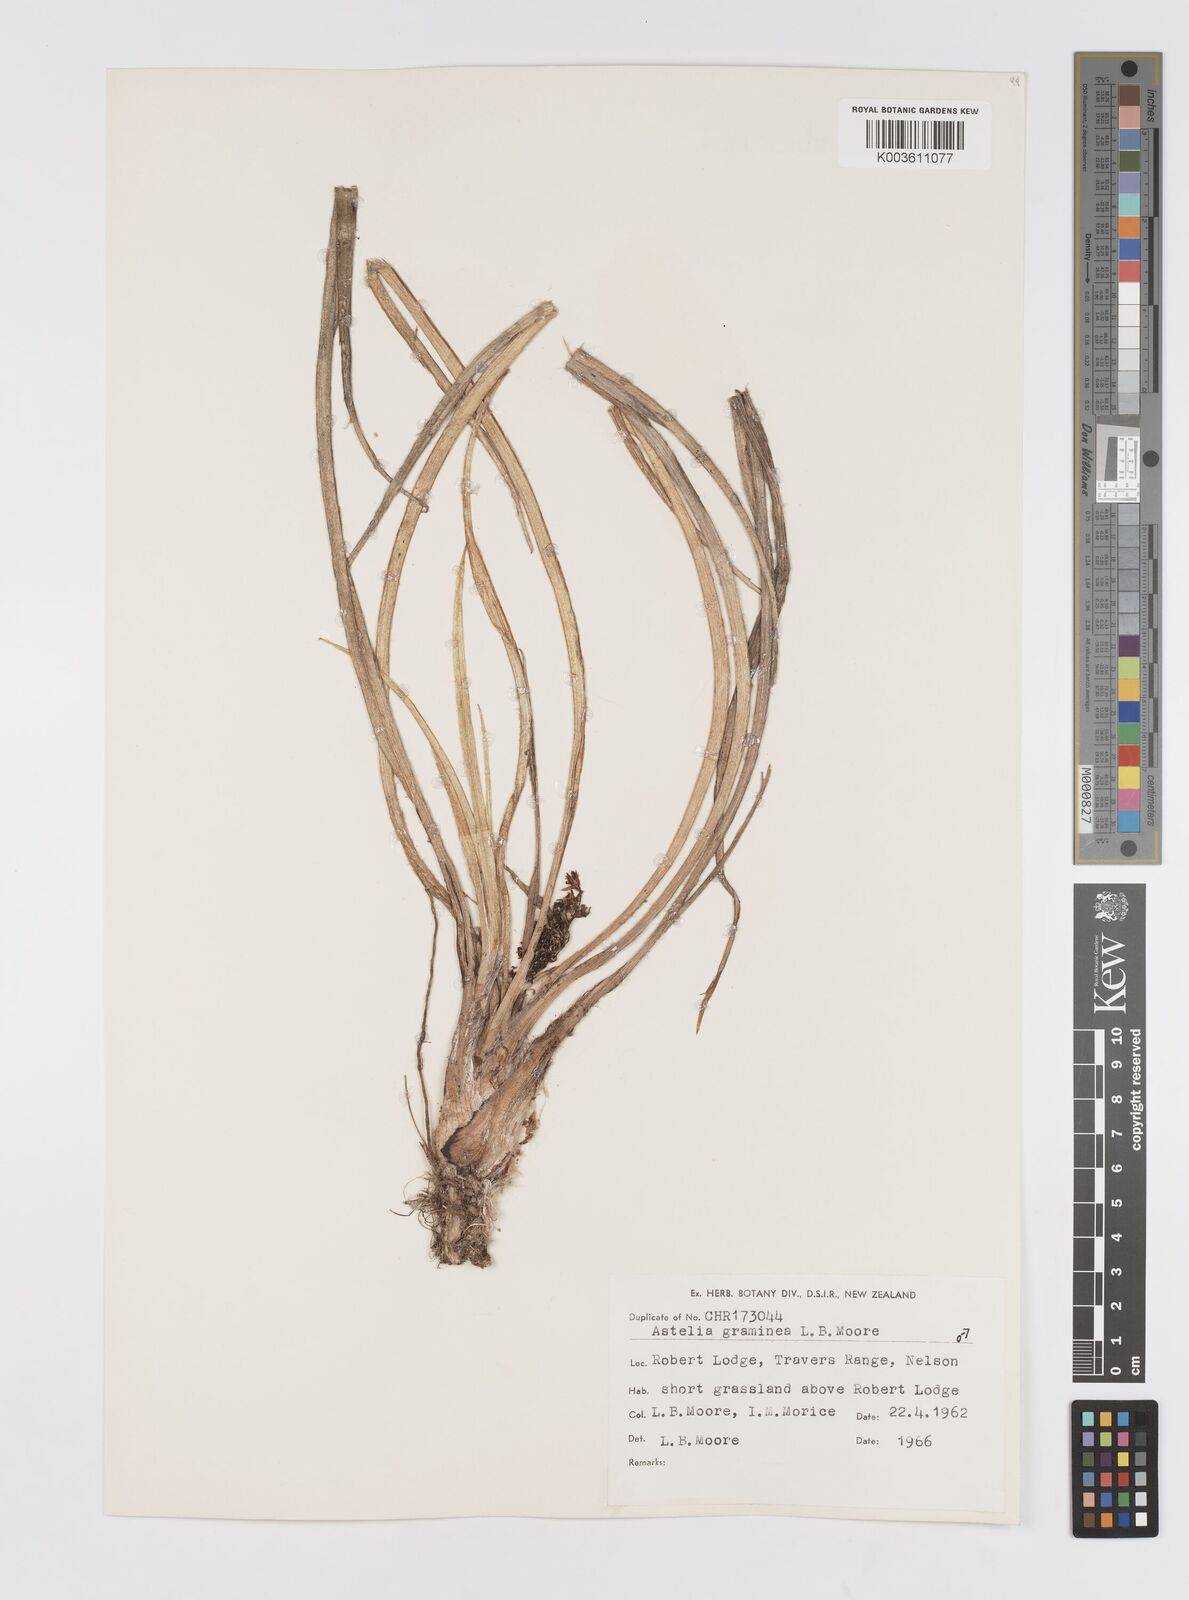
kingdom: Plantae
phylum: Tracheophyta
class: Liliopsida
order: Asparagales
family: Asteliaceae
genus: Astelia
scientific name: Astelia
